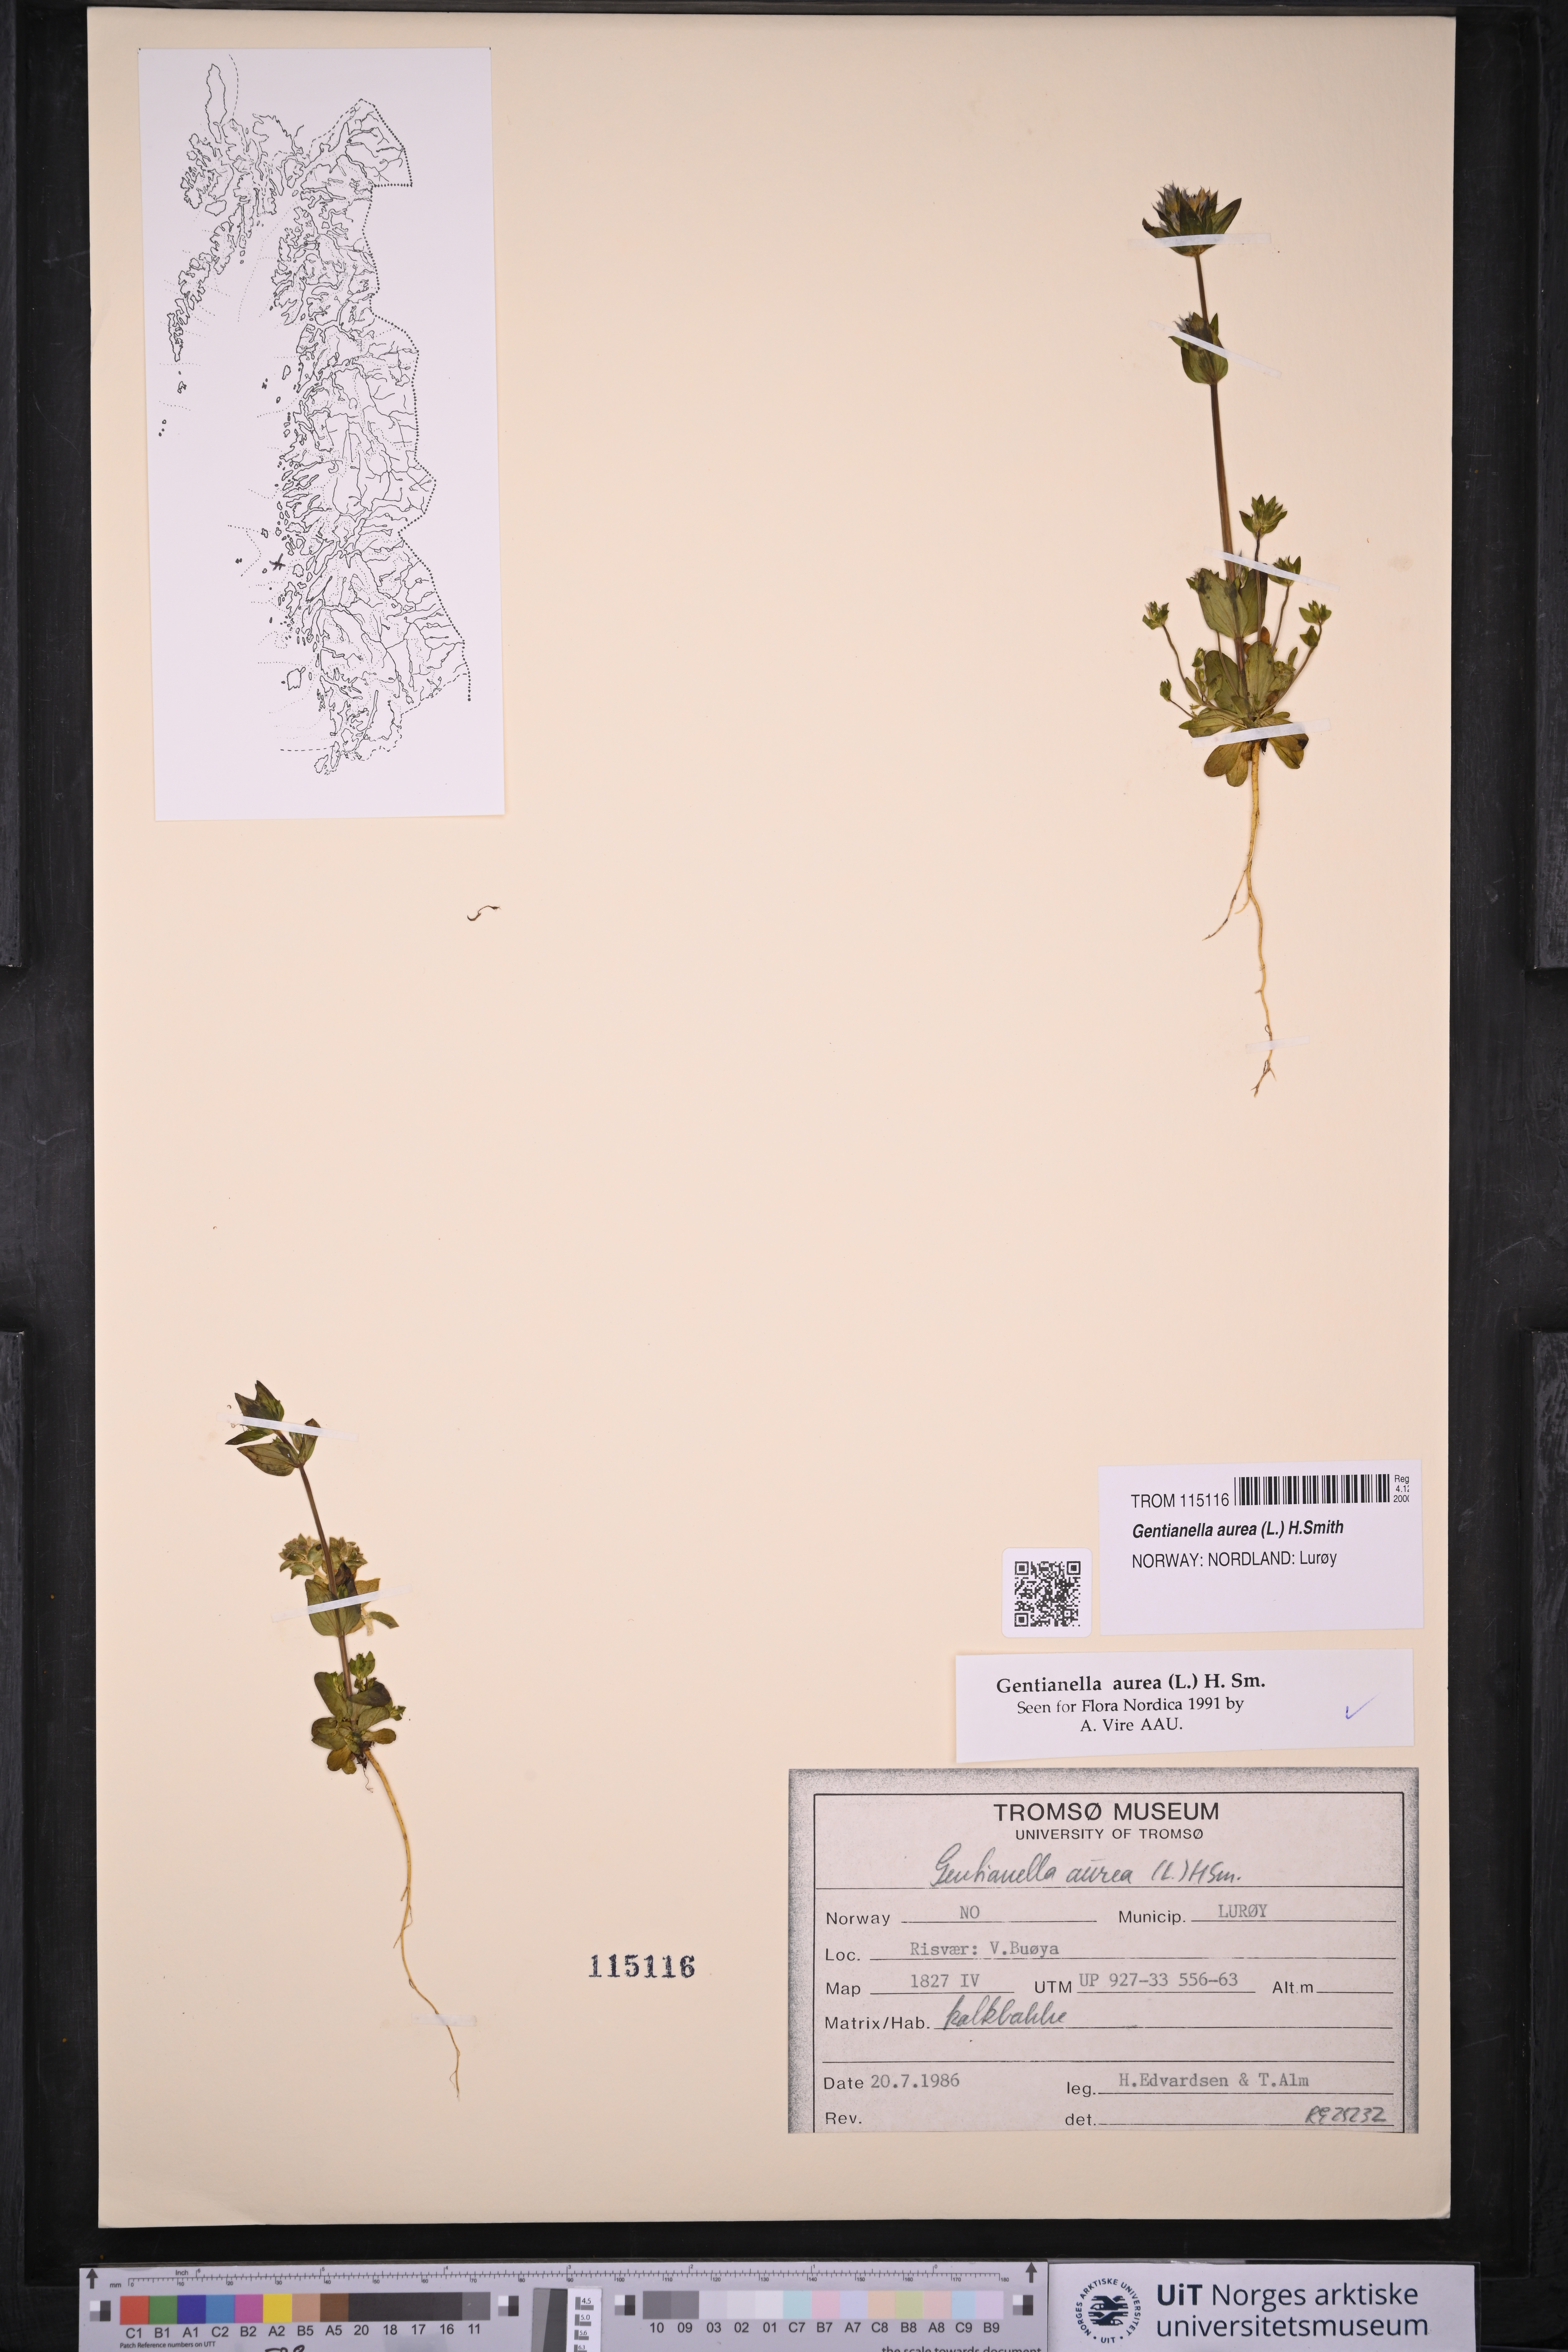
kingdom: Plantae
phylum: Tracheophyta
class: Magnoliopsida
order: Gentianales
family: Gentianaceae
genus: Gentianella
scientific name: Gentianella aurea
